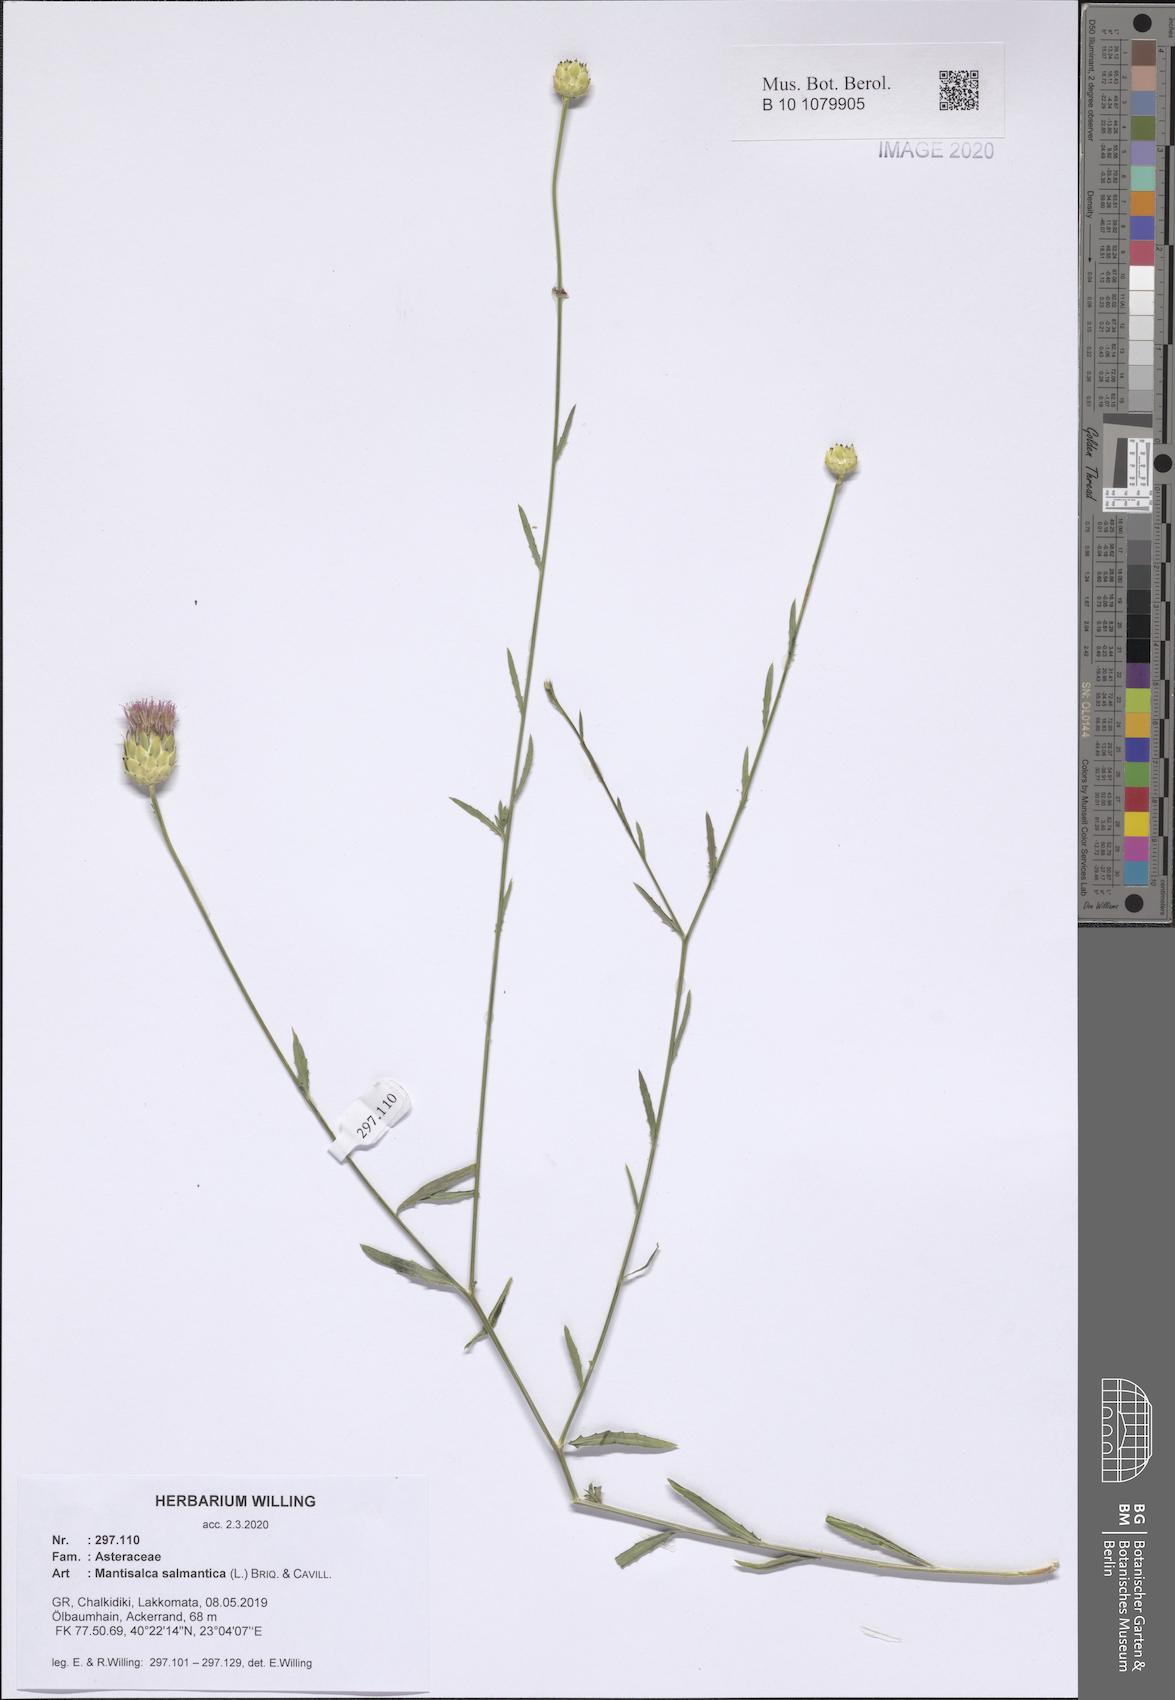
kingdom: Plantae
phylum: Tracheophyta
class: Magnoliopsida
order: Asterales
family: Asteraceae
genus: Mantisalca
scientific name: Mantisalca salmantica
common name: Dagger flower
